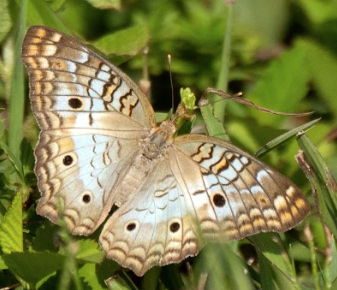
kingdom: Animalia
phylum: Arthropoda
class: Insecta
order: Lepidoptera
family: Nymphalidae
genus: Anartia
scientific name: Anartia jatrophae
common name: White Peacock
